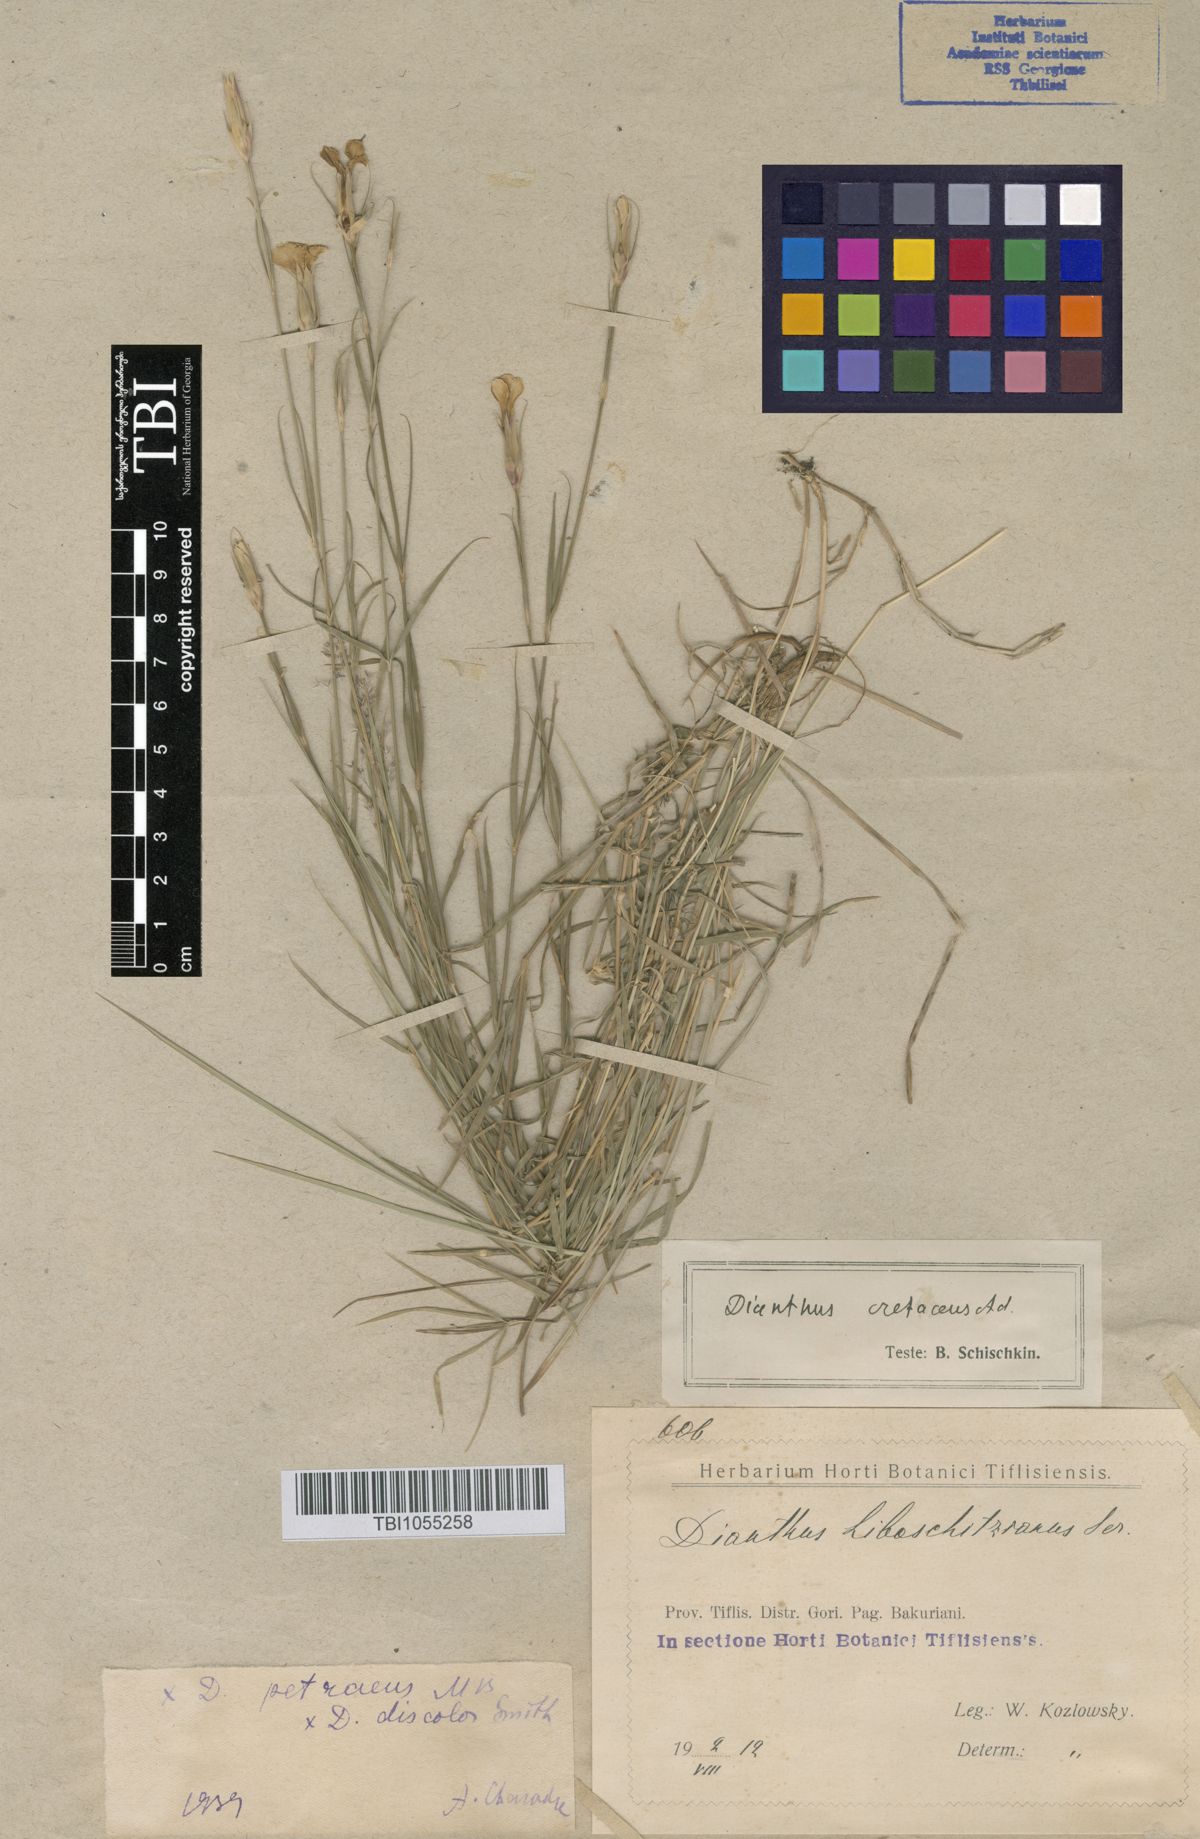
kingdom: Plantae
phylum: Tracheophyta
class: Magnoliopsida
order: Caryophyllales
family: Caryophyllaceae
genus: Dianthus
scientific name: Dianthus cretaceus
